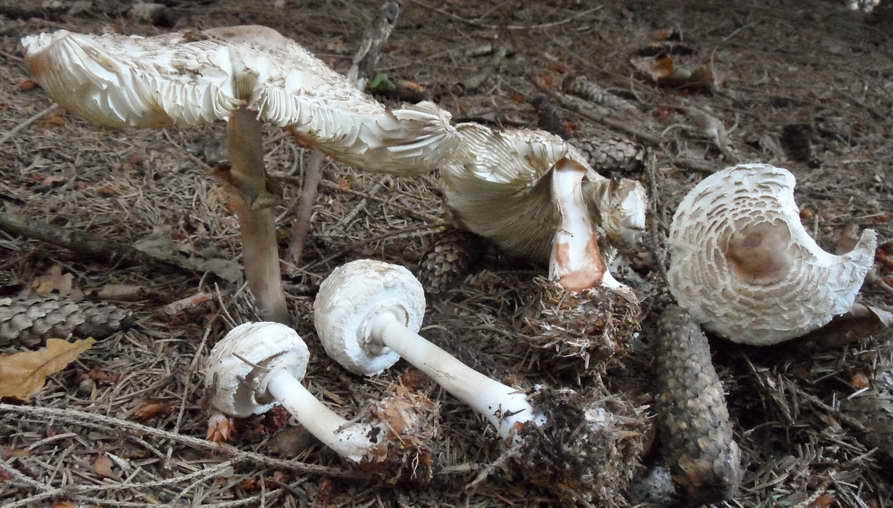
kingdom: Fungi
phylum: Basidiomycota
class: Agaricomycetes
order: Agaricales
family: Agaricaceae
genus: Chlorophyllum
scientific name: Chlorophyllum rhacodes
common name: ægte rabarberhat
